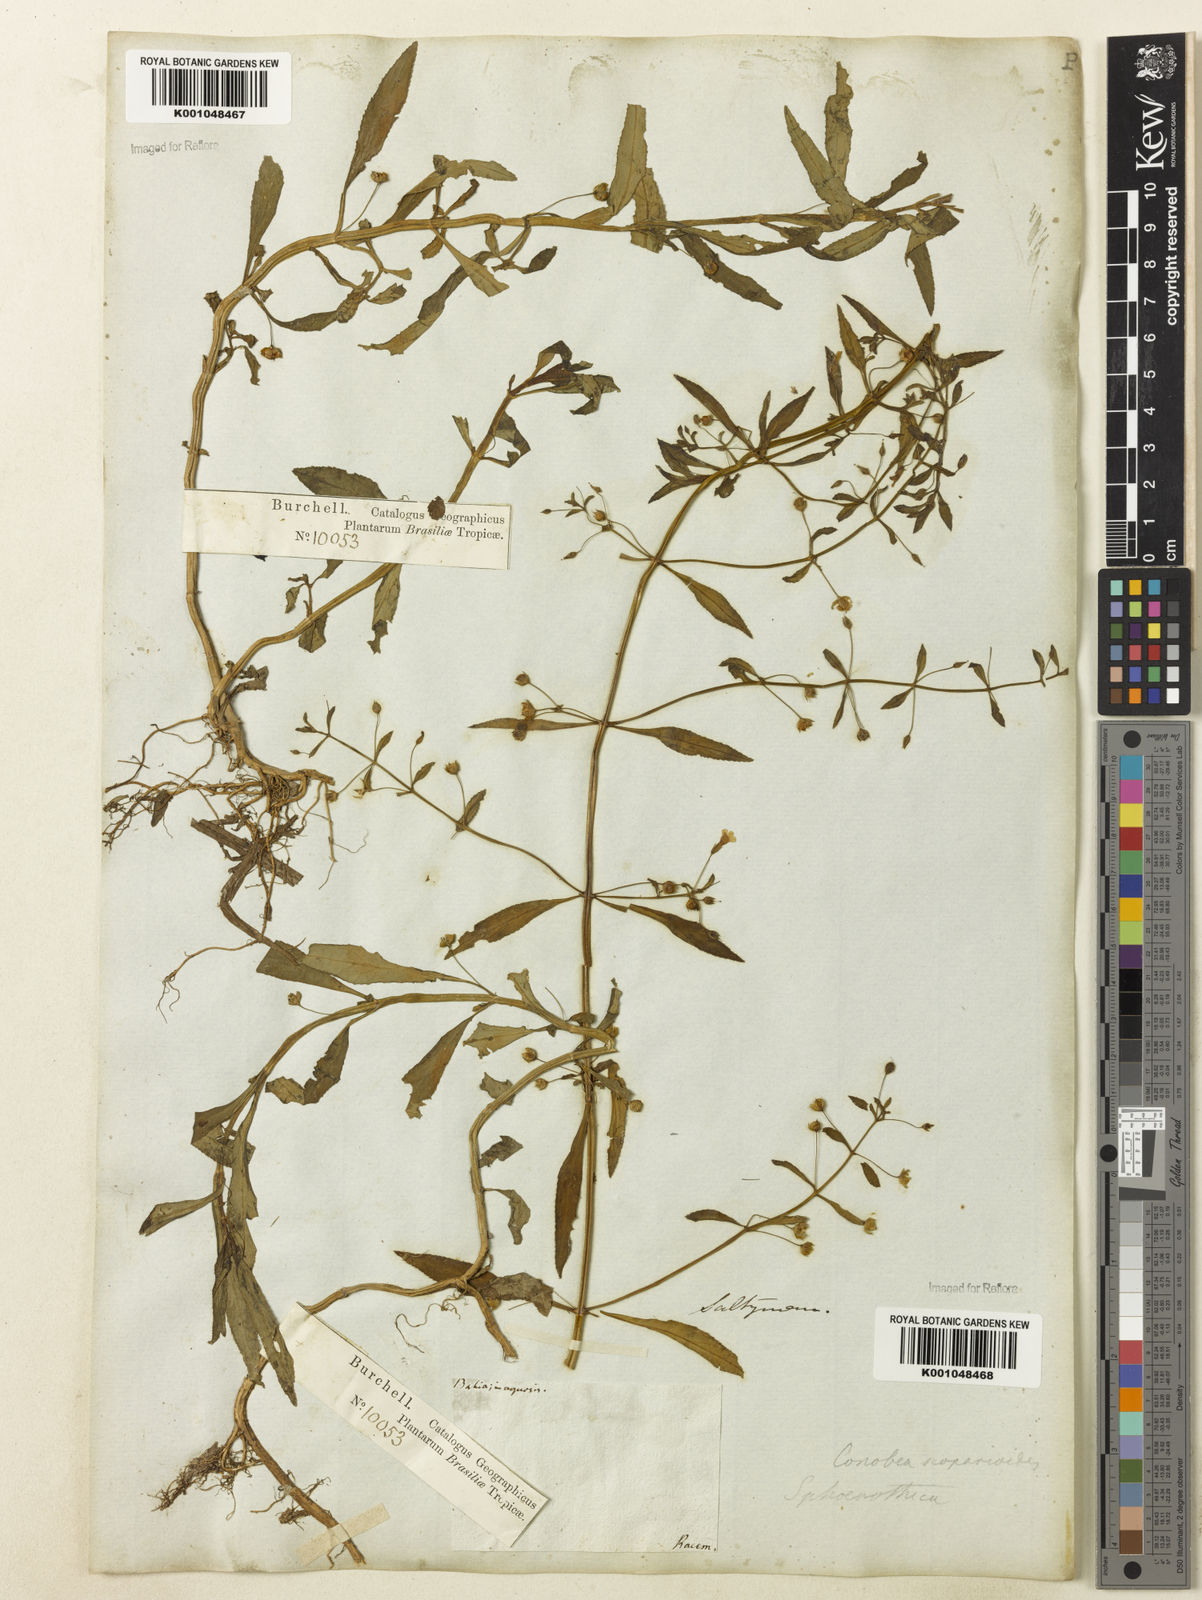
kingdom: Plantae
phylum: Tracheophyta
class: Magnoliopsida
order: Lamiales
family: Plantaginaceae
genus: Conobea
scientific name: Conobea scoparioides
